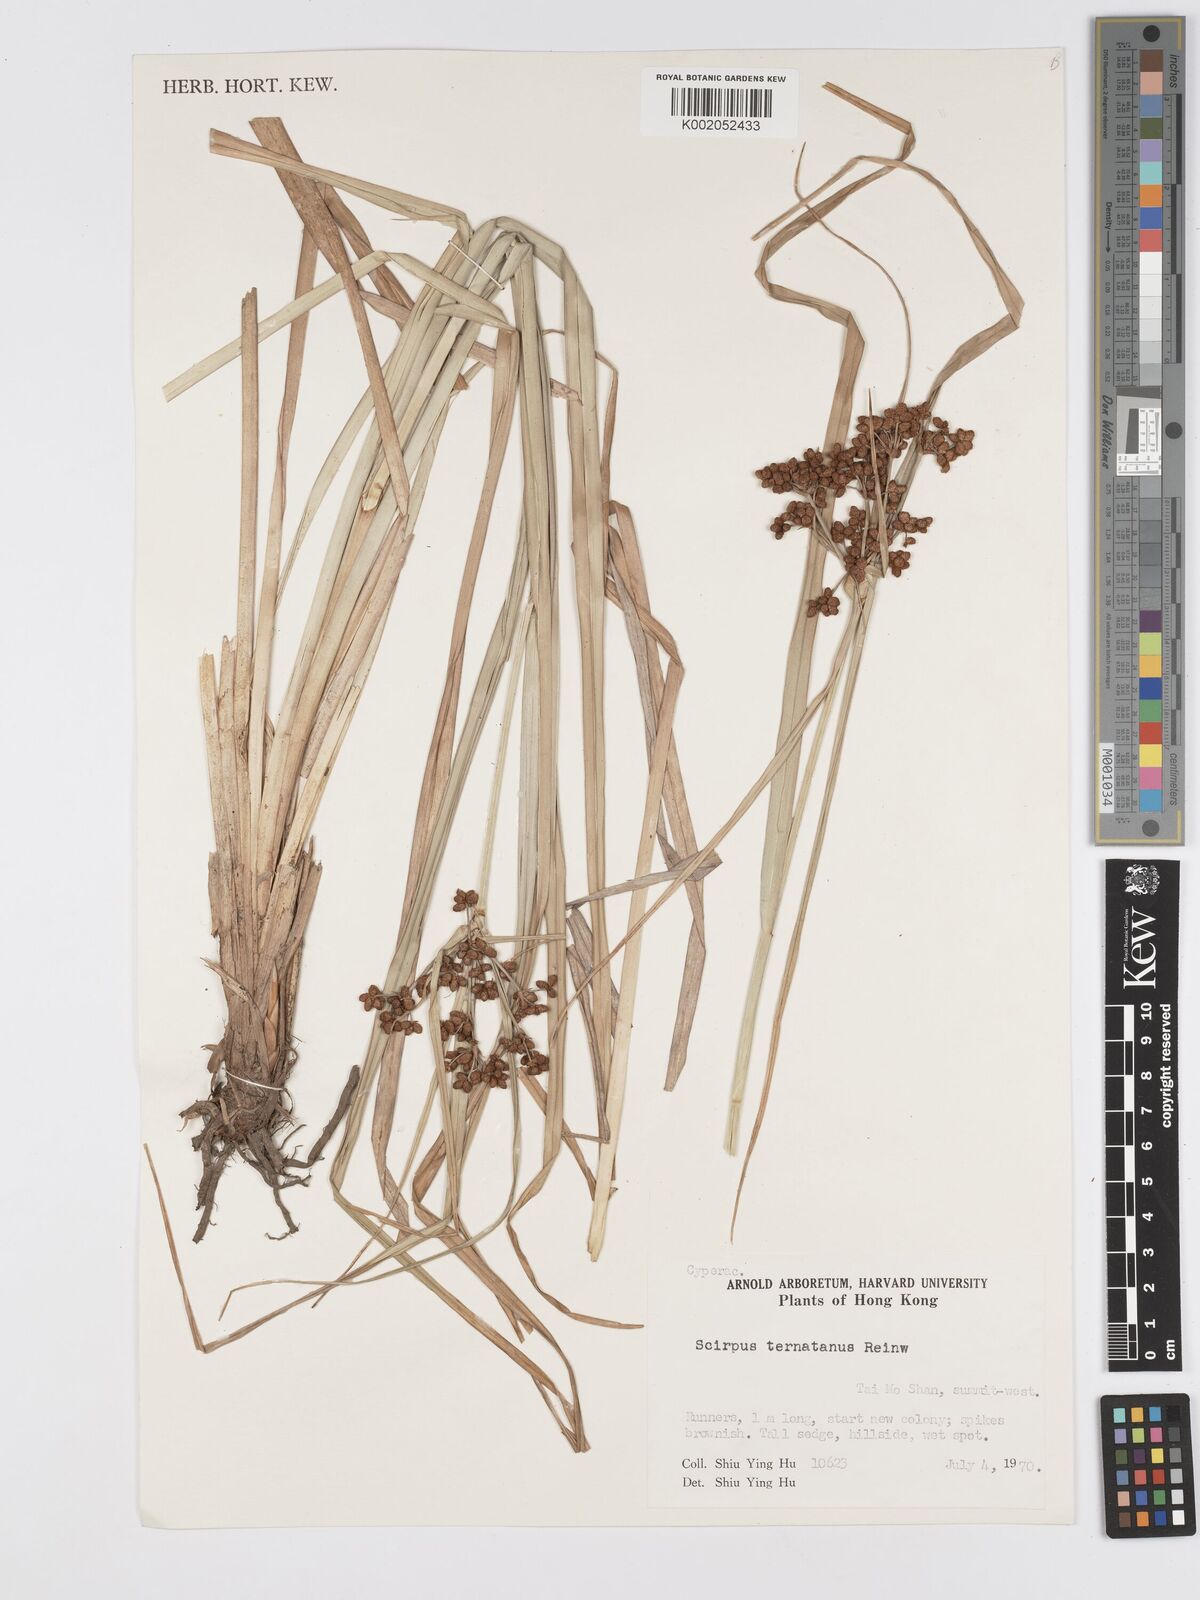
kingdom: Plantae
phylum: Tracheophyta
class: Liliopsida
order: Poales
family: Cyperaceae
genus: Scirpus
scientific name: Scirpus ternatanus
